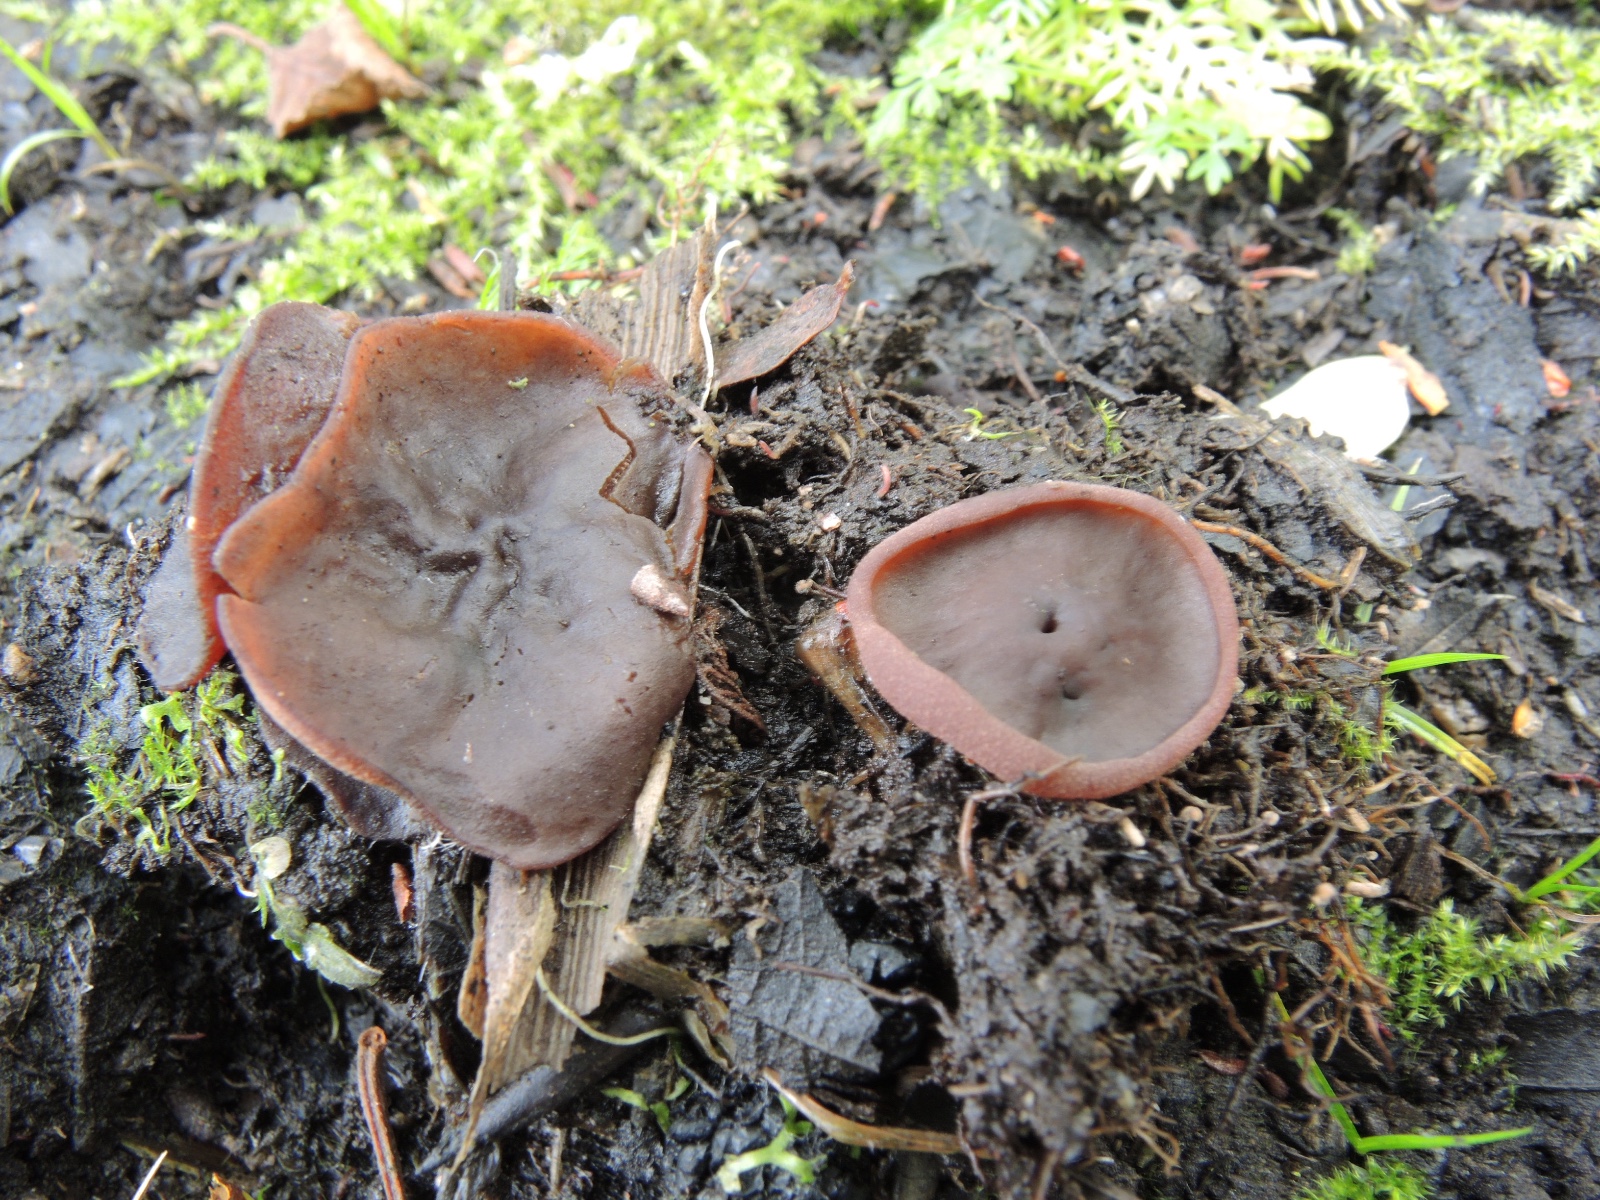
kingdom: Fungi
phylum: Ascomycota
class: Pezizomycetes
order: Pezizales
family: Pezizaceae
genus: Adelphella
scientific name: Adelphella babingtonii
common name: kastaniebrun bægersvamp
